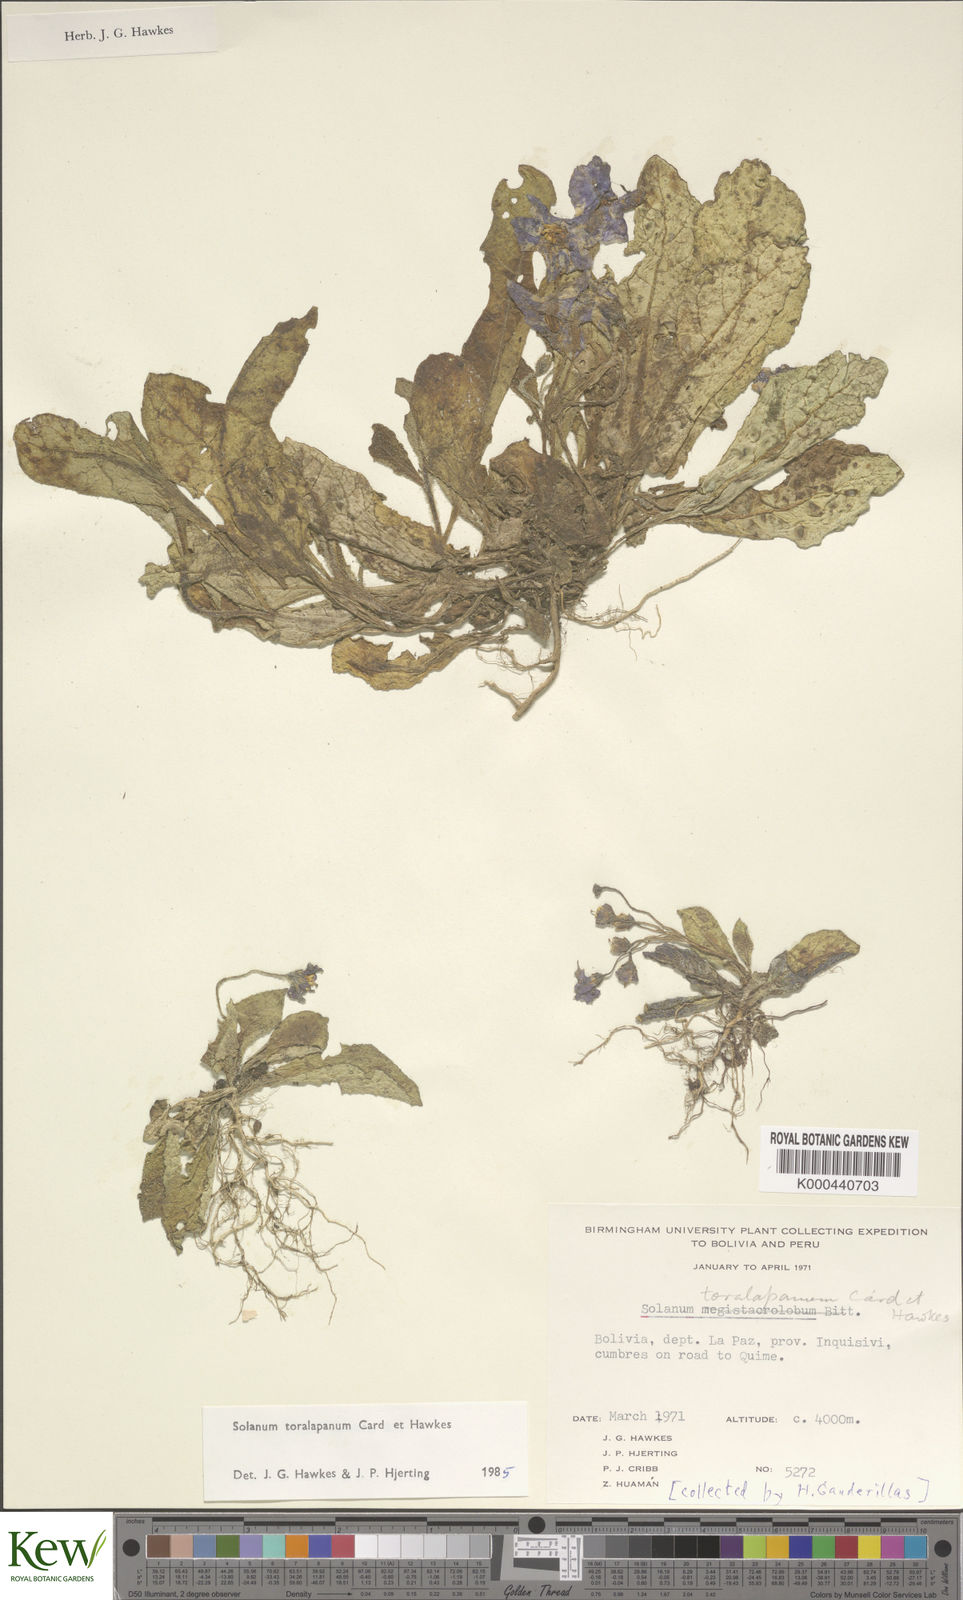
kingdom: Plantae
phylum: Tracheophyta
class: Magnoliopsida
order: Solanales
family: Solanaceae
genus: Solanum
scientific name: Solanum boliviense
